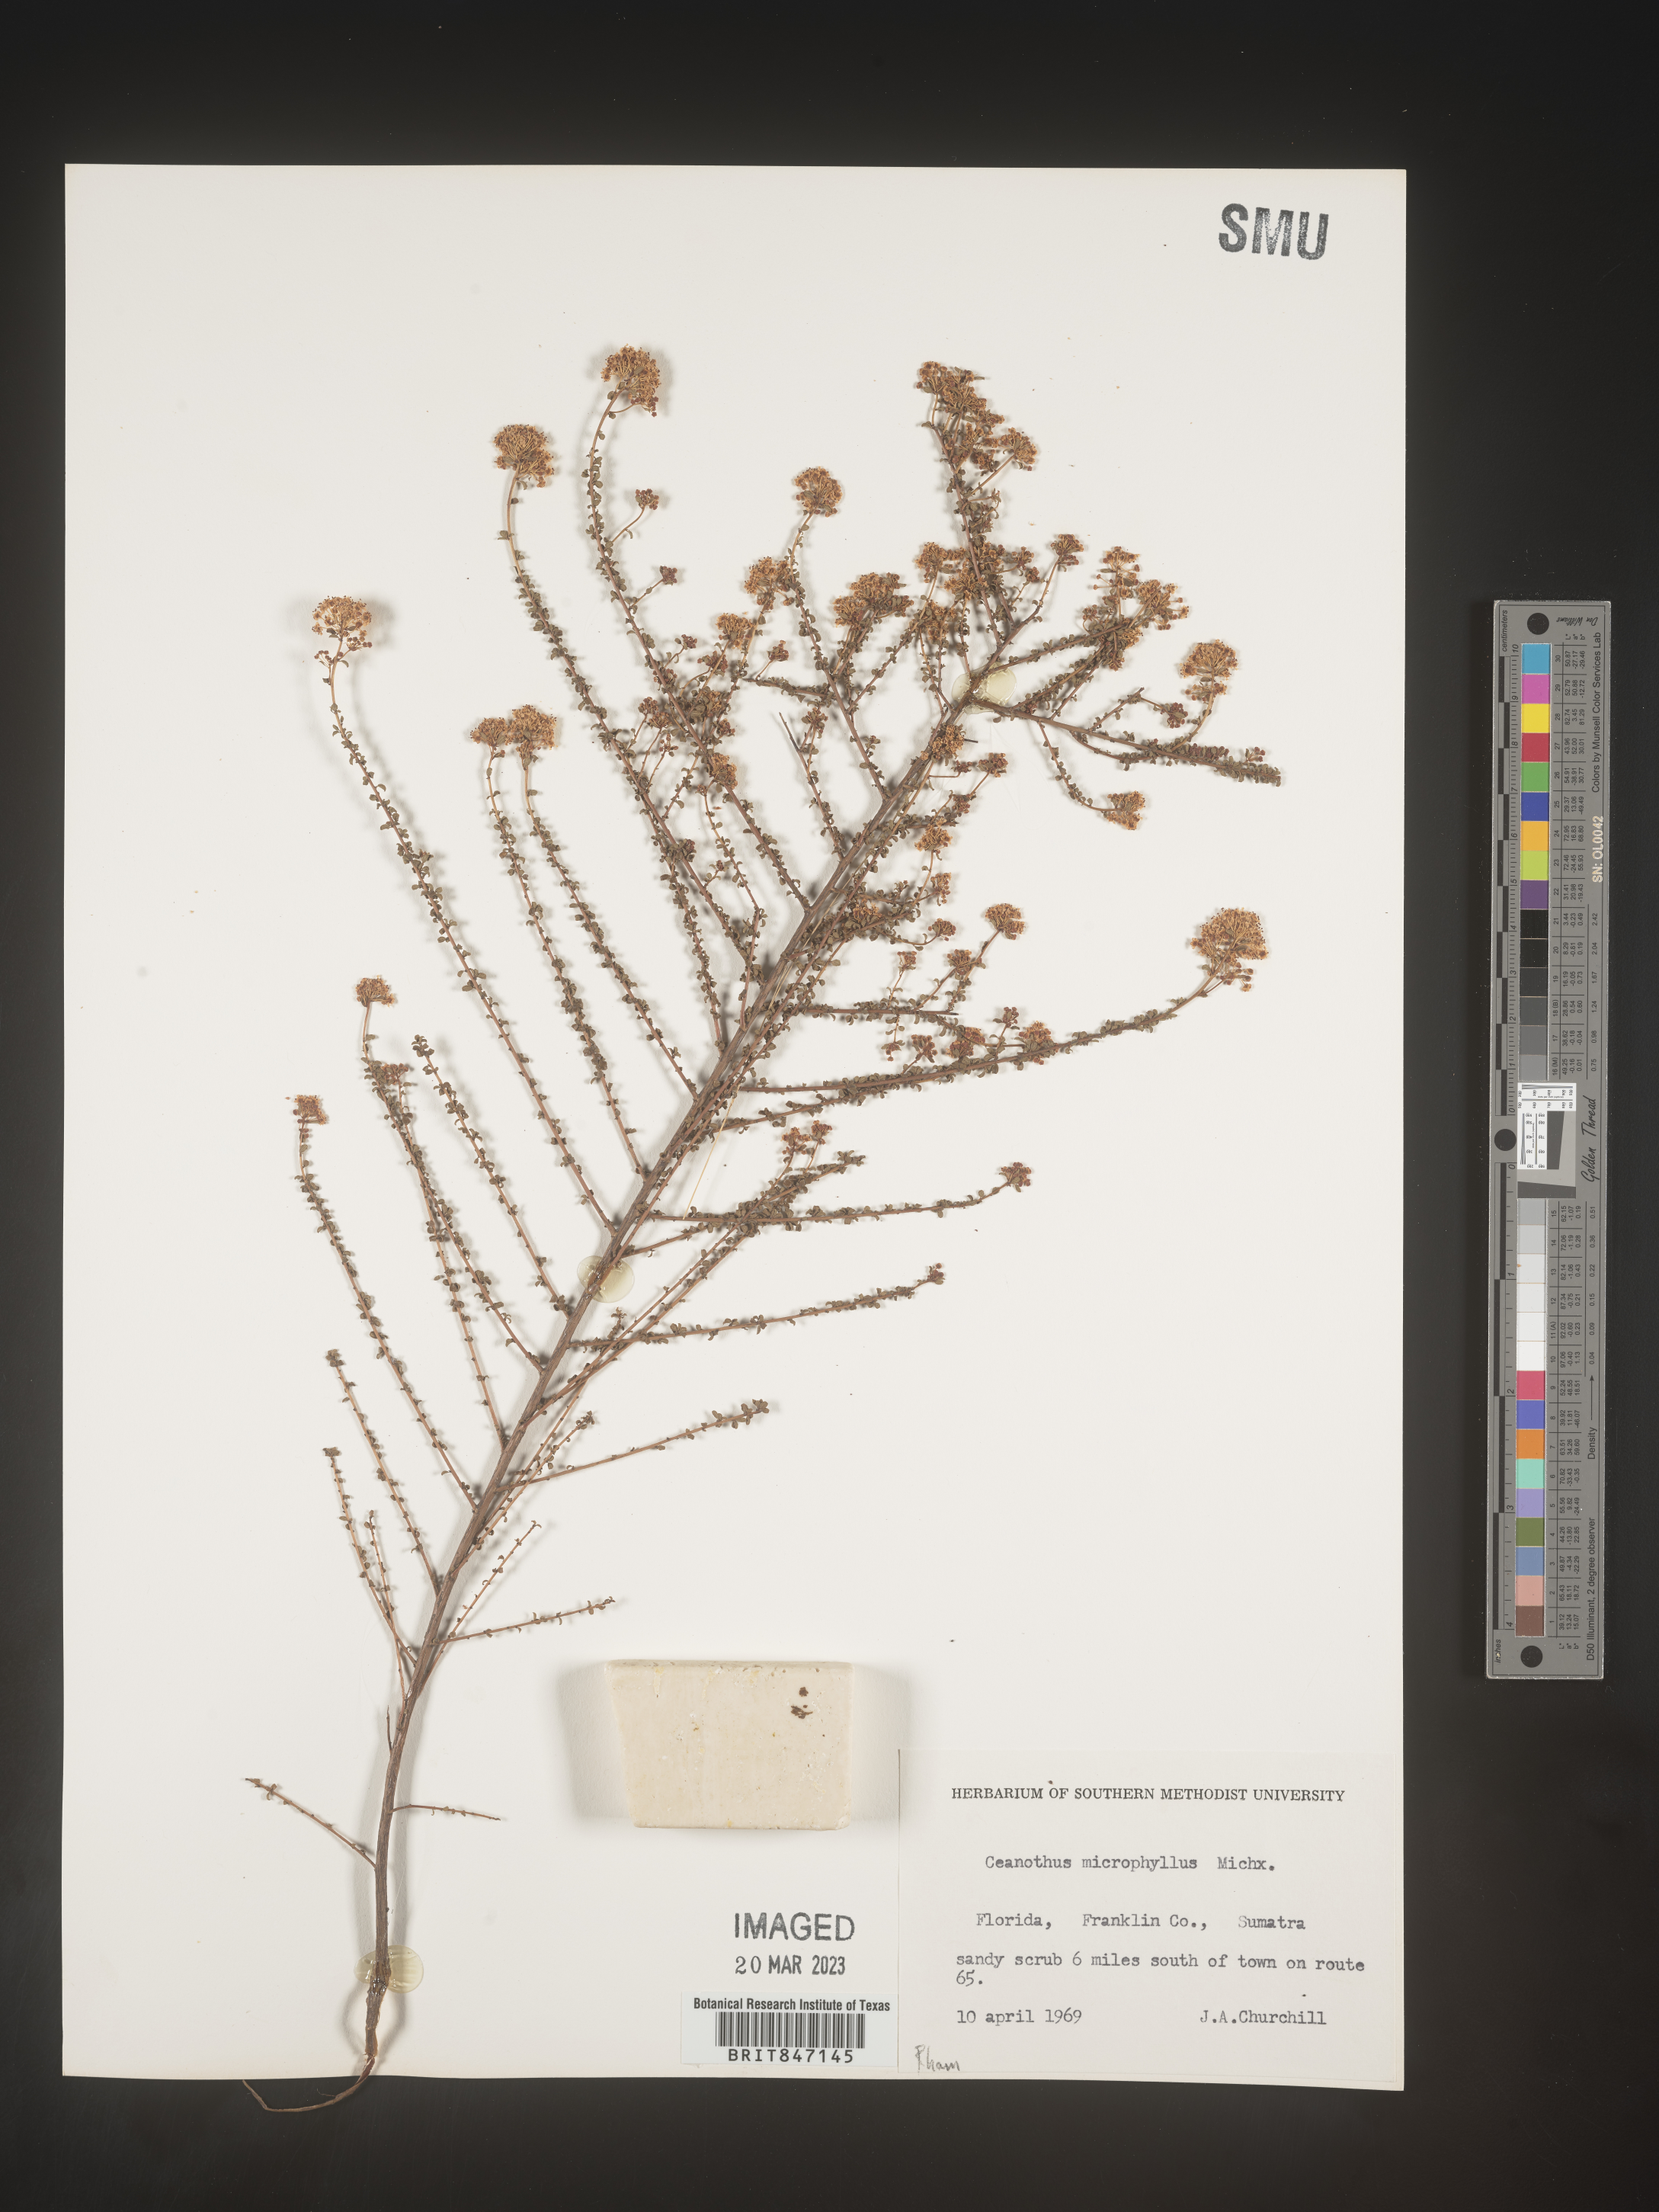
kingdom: Plantae
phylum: Tracheophyta
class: Magnoliopsida
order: Rosales
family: Rhamnaceae
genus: Ceanothus
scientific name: Ceanothus
